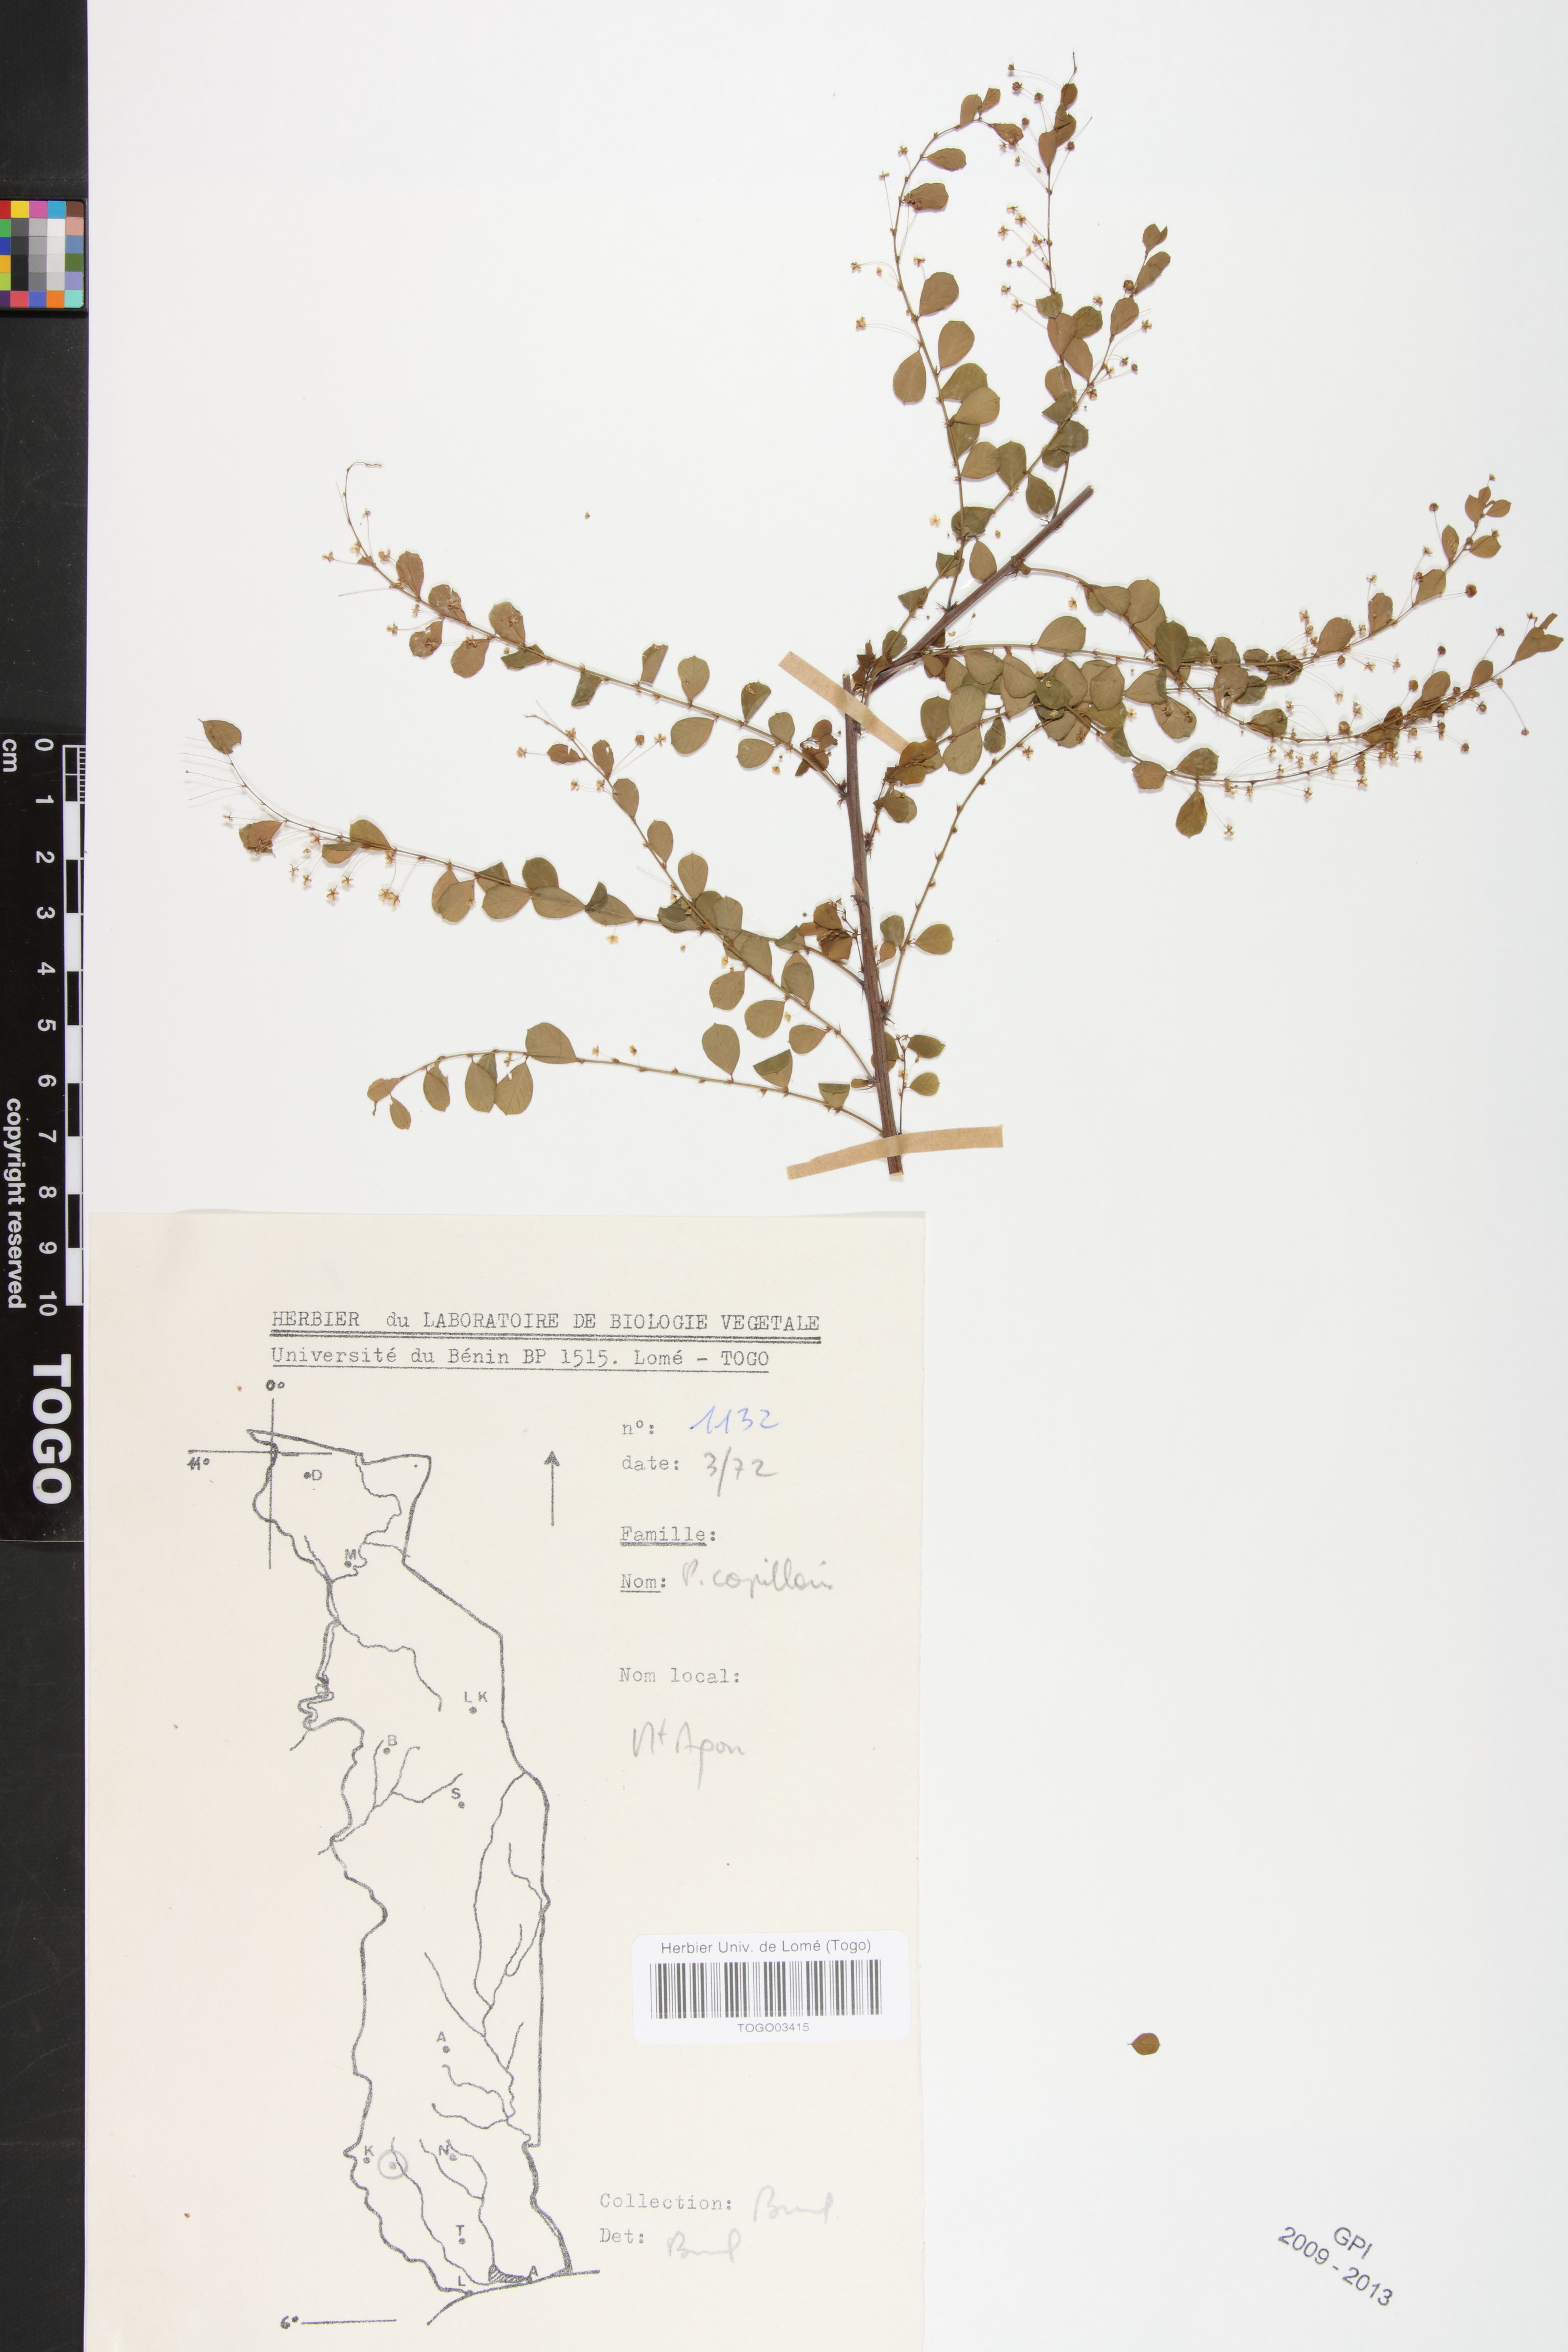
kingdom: Plantae
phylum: Tracheophyta
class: Magnoliopsida
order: Malpighiales
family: Phyllanthaceae
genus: Phyllanthus
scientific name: Phyllanthus nummulariifolius
